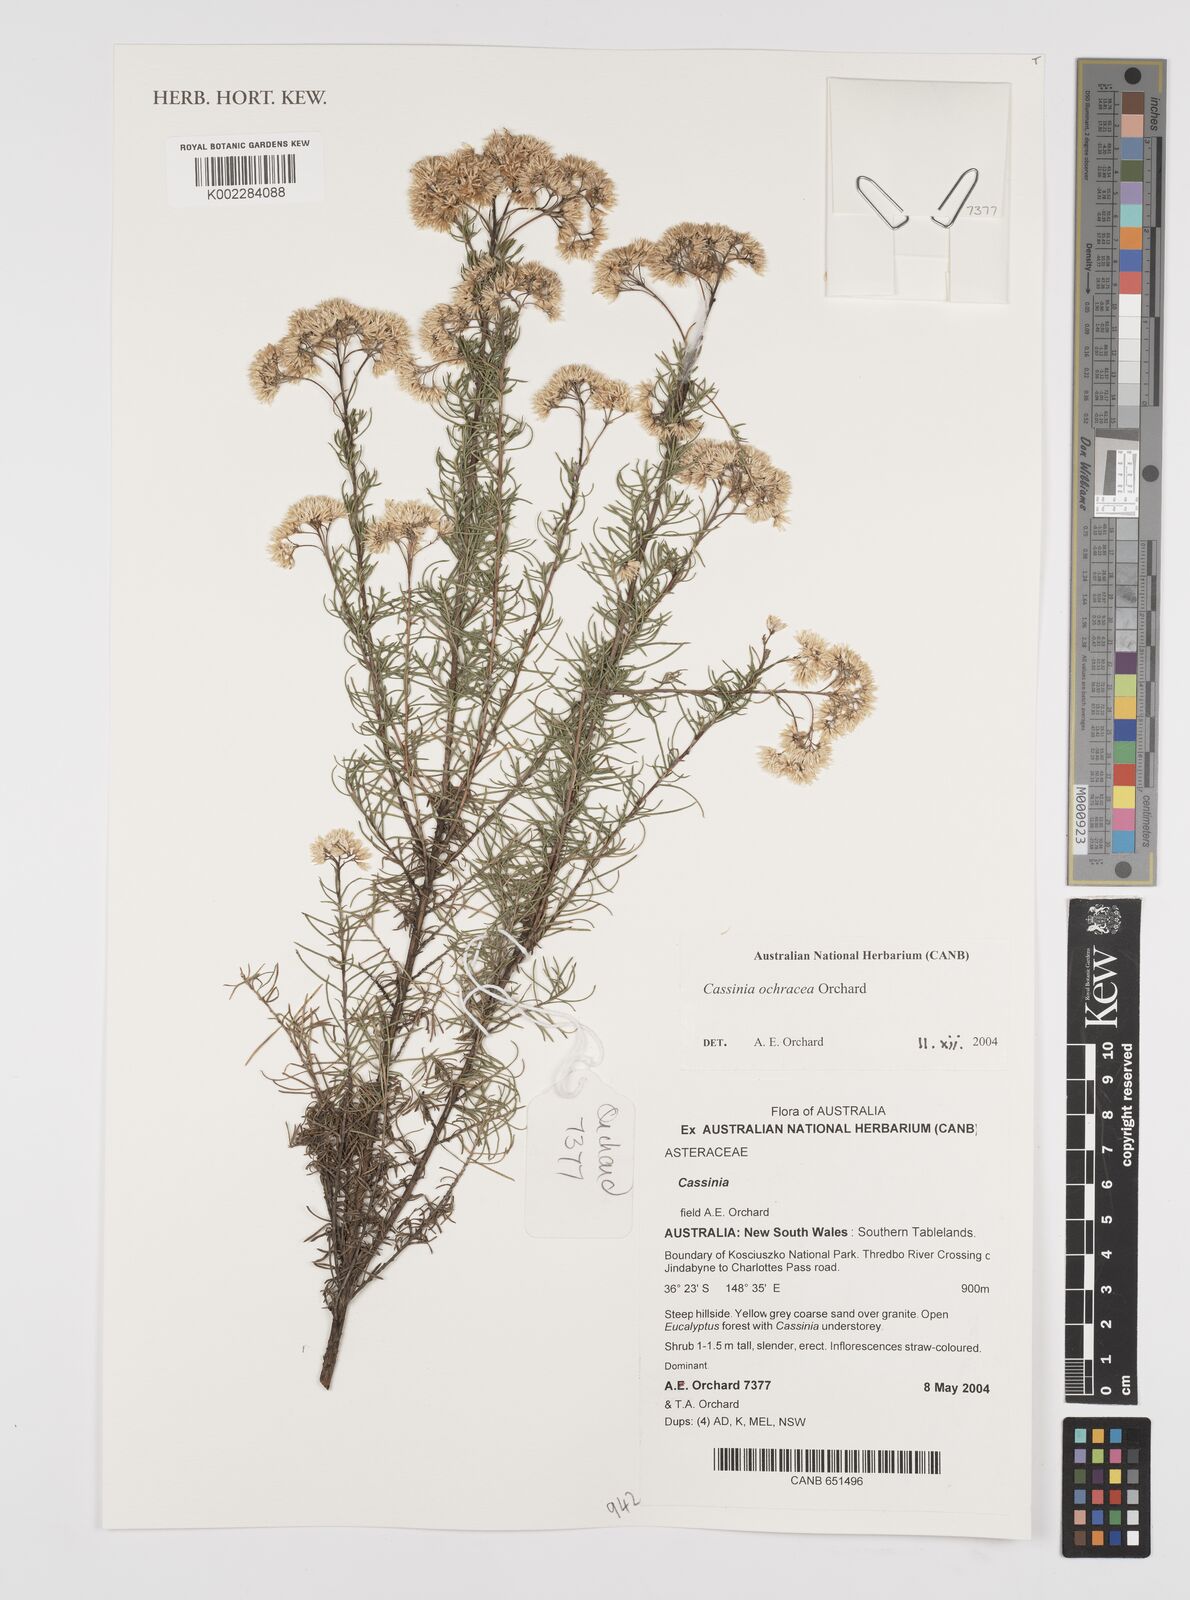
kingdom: Plantae
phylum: Tracheophyta
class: Magnoliopsida
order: Asterales
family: Asteraceae
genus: Cassinia
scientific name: Cassinia ochracea
